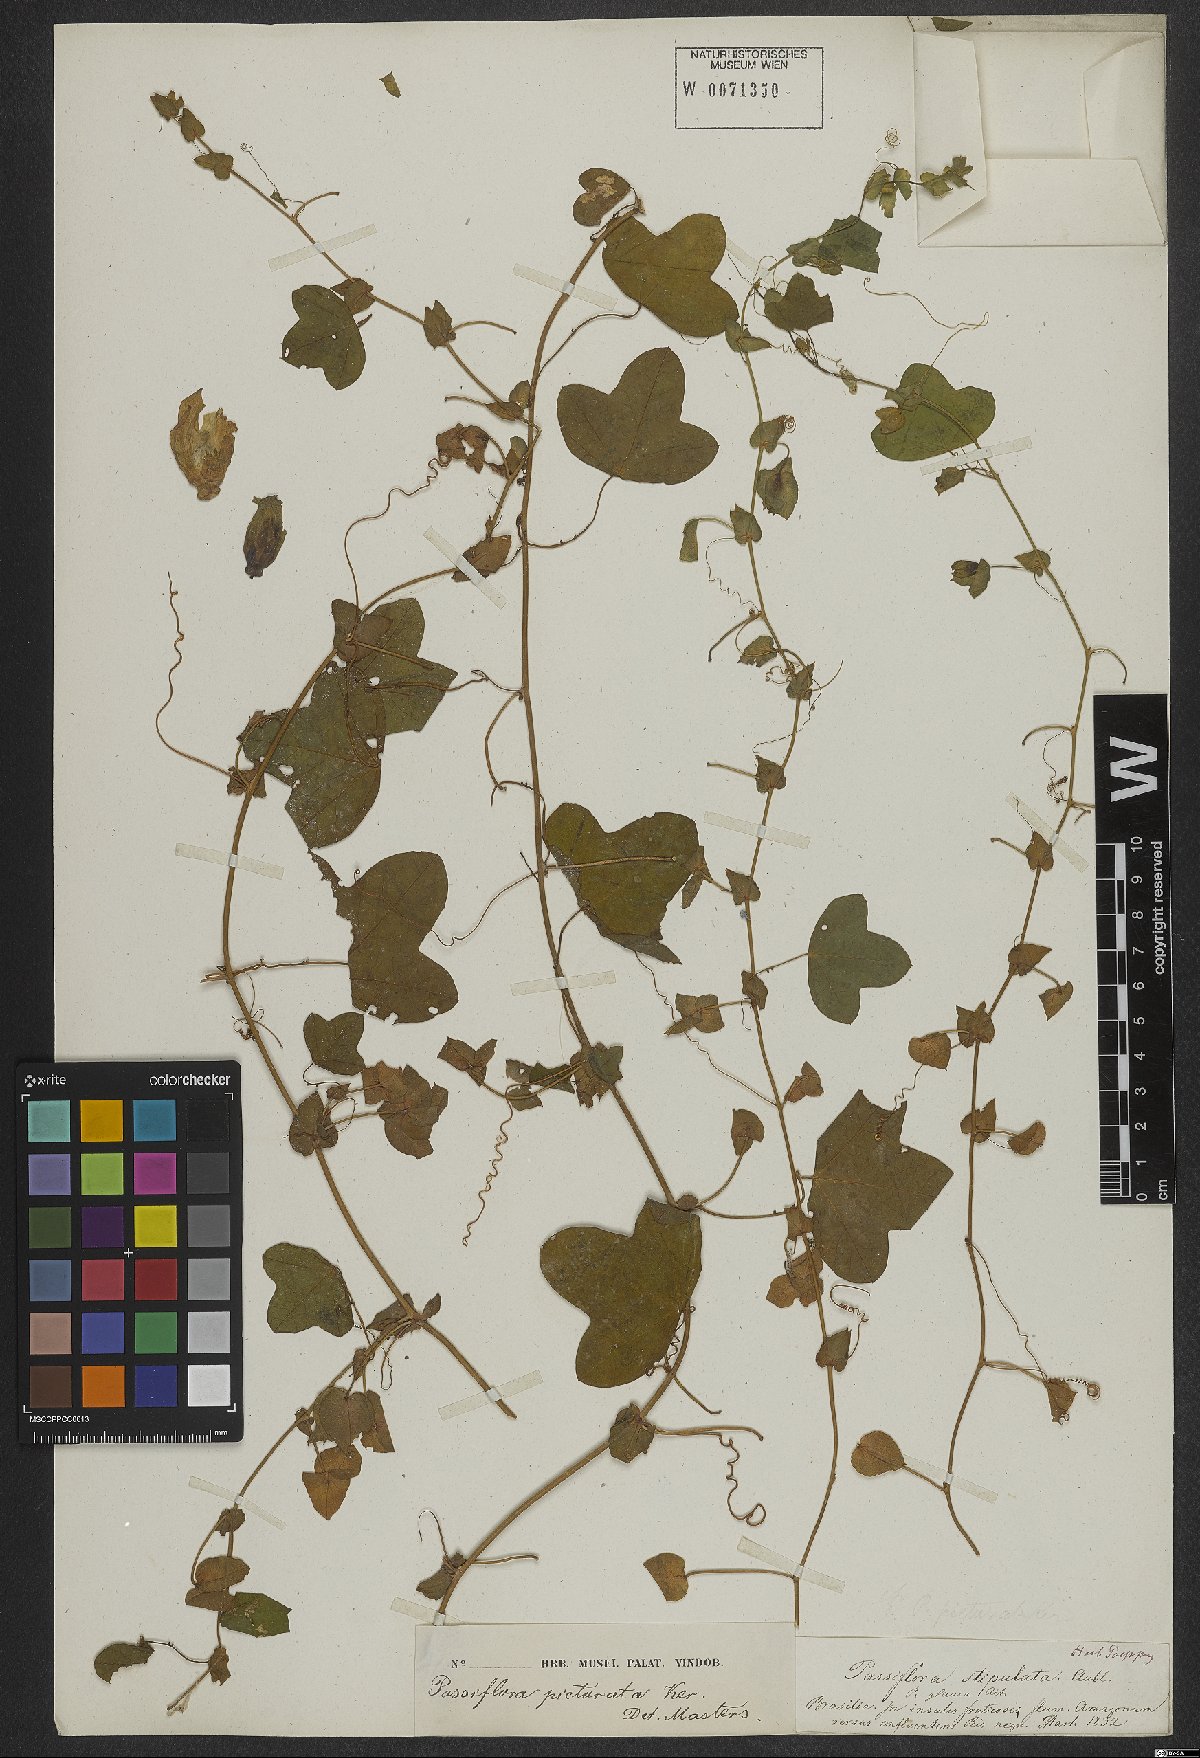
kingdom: Plantae
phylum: Tracheophyta
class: Magnoliopsida
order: Malpighiales
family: Passifloraceae
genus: Passiflora
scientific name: Passiflora picturata
